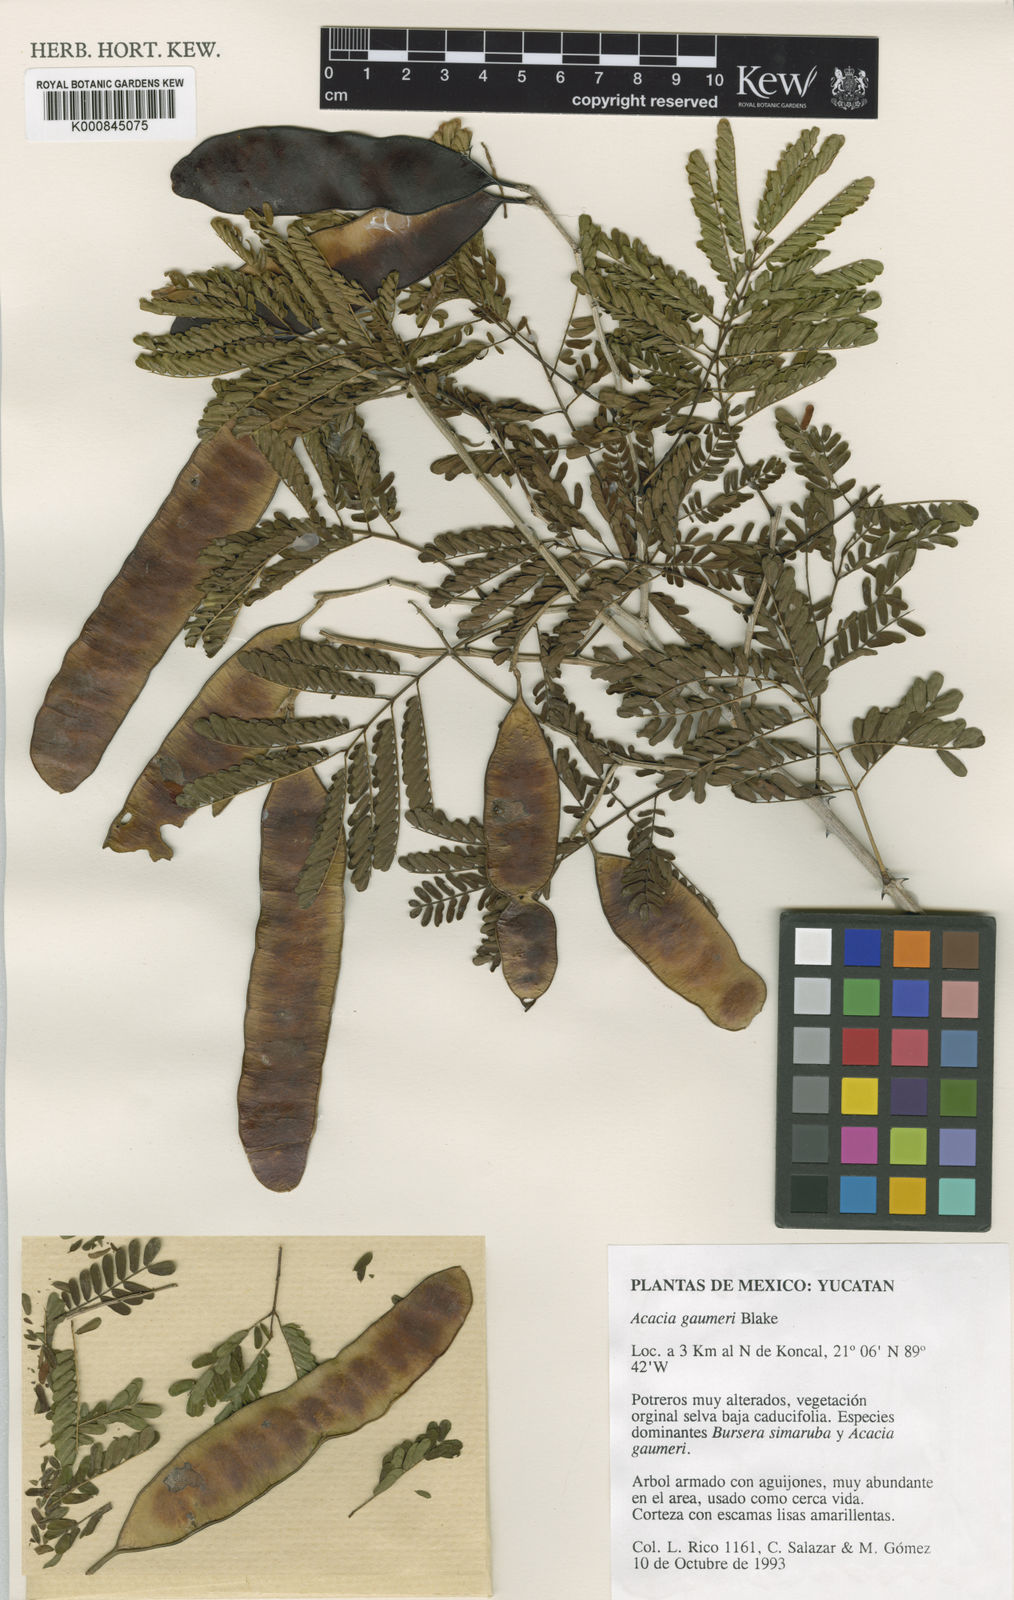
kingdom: Plantae
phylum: Tracheophyta
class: Magnoliopsida
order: Fabales
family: Fabaceae
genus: Senegalia
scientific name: Senegalia gaumeri
